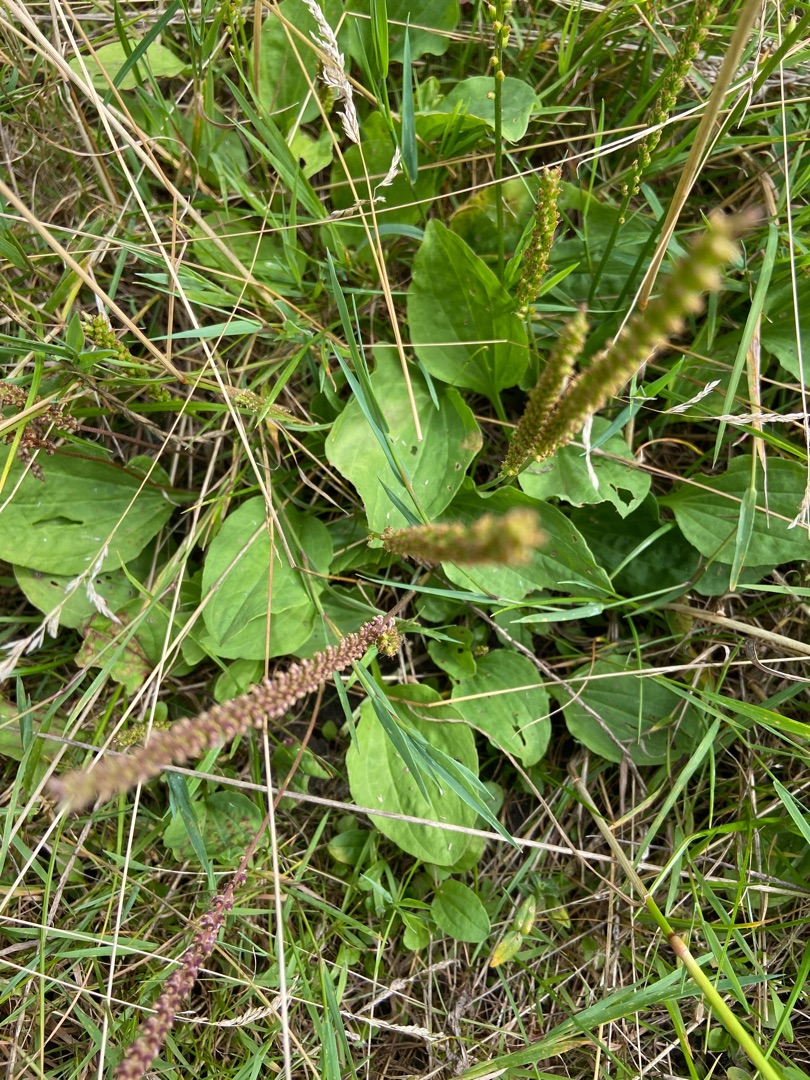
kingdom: Plantae
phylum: Tracheophyta
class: Magnoliopsida
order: Lamiales
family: Plantaginaceae
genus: Plantago
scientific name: Plantago major
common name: Glat vejbred
